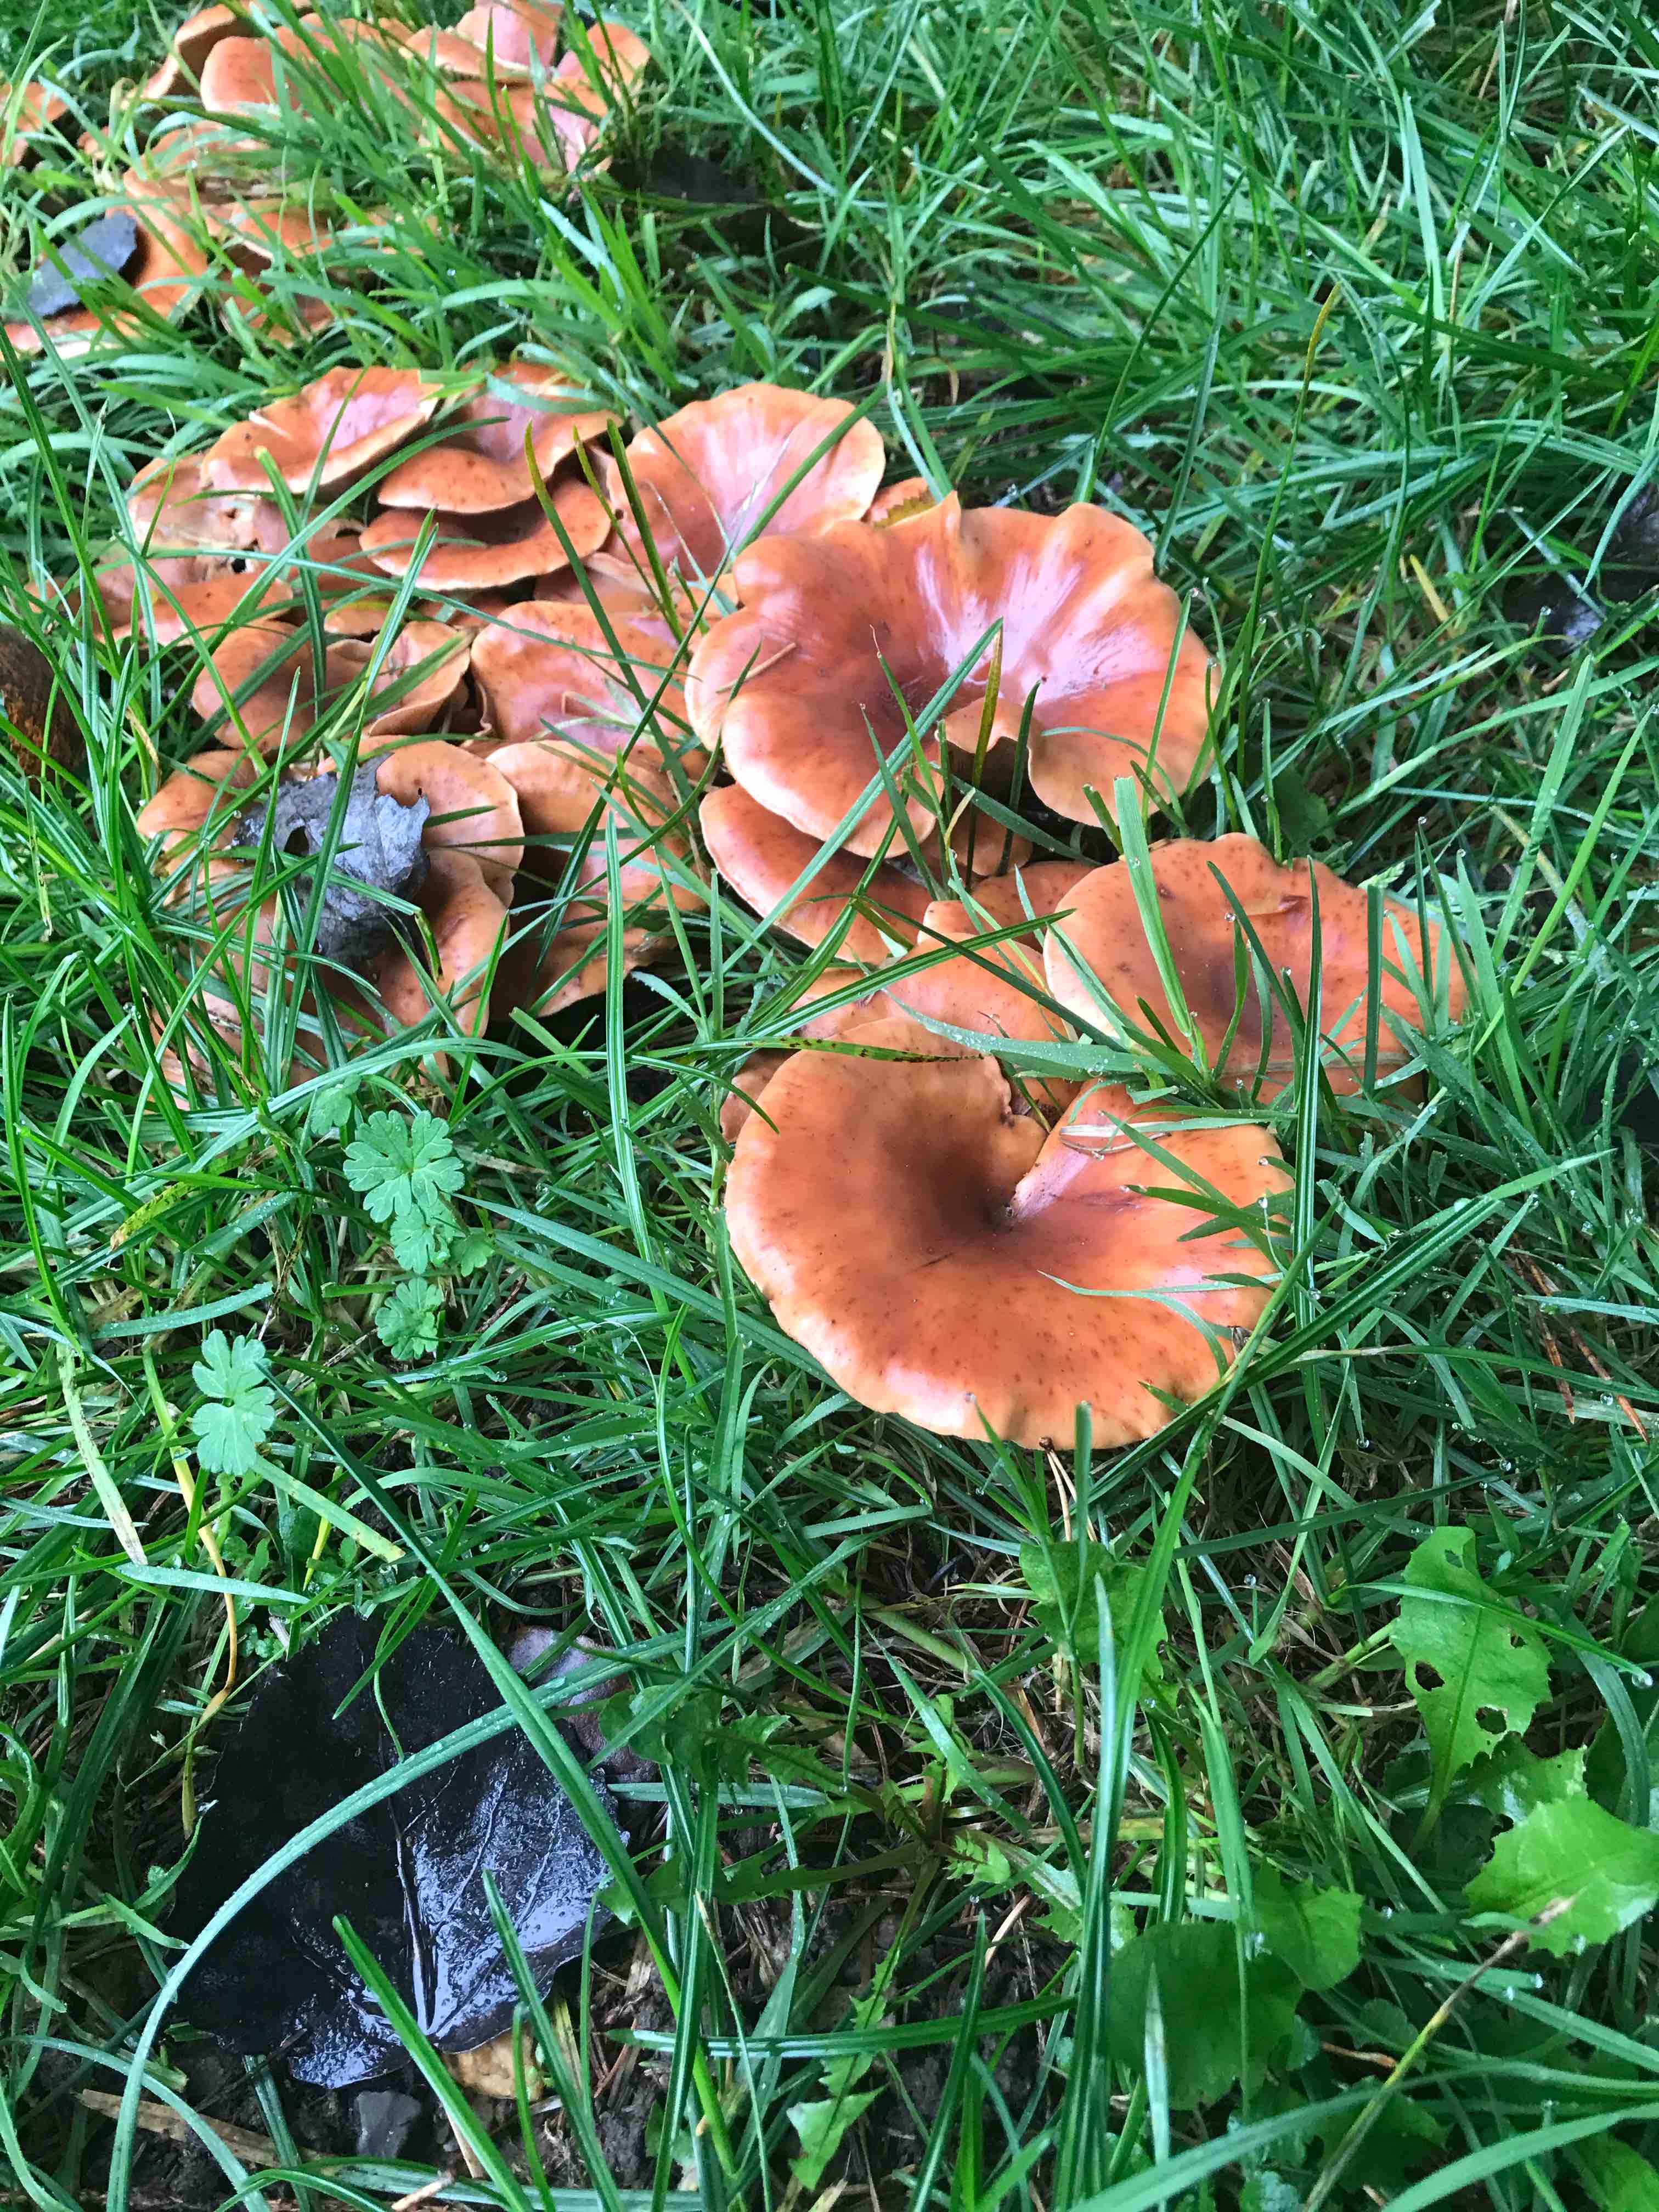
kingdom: Fungi
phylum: Basidiomycota
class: Agaricomycetes
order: Agaricales
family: Tricholomataceae
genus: Paralepista
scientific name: Paralepista flaccida
